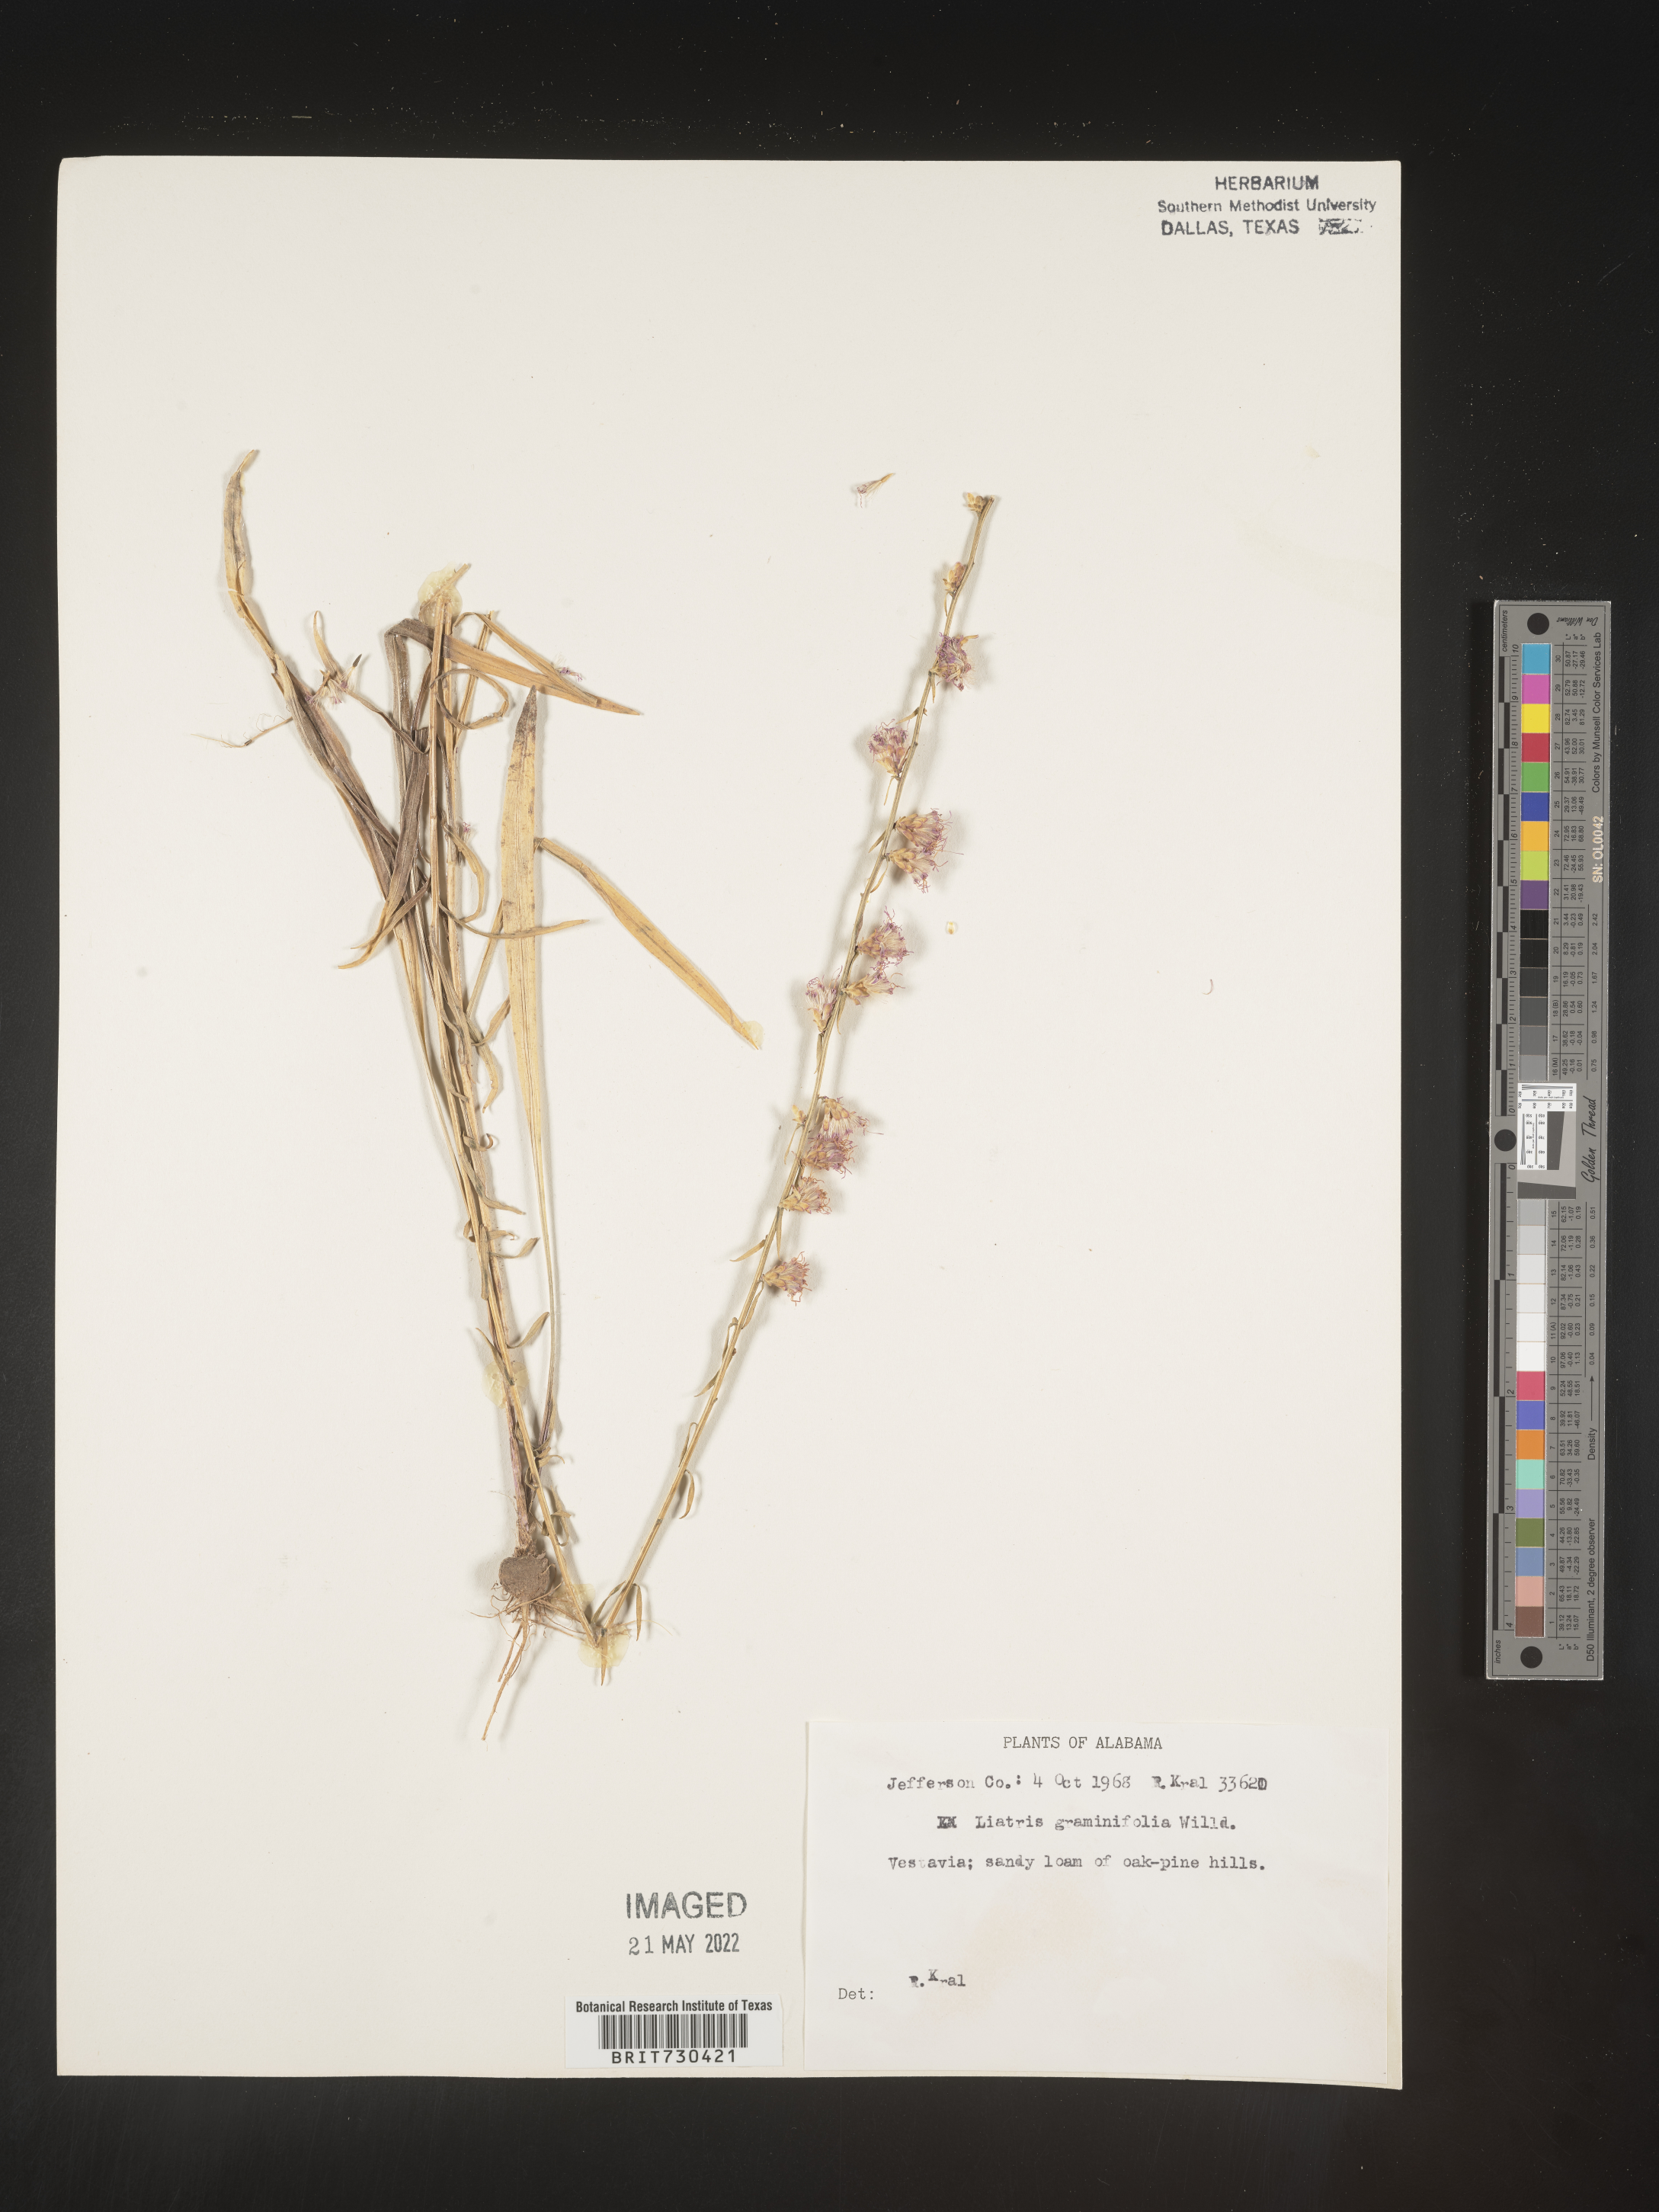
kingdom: Plantae
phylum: Tracheophyta
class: Magnoliopsida
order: Asterales
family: Asteraceae
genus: Liatris
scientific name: Liatris elegantula
